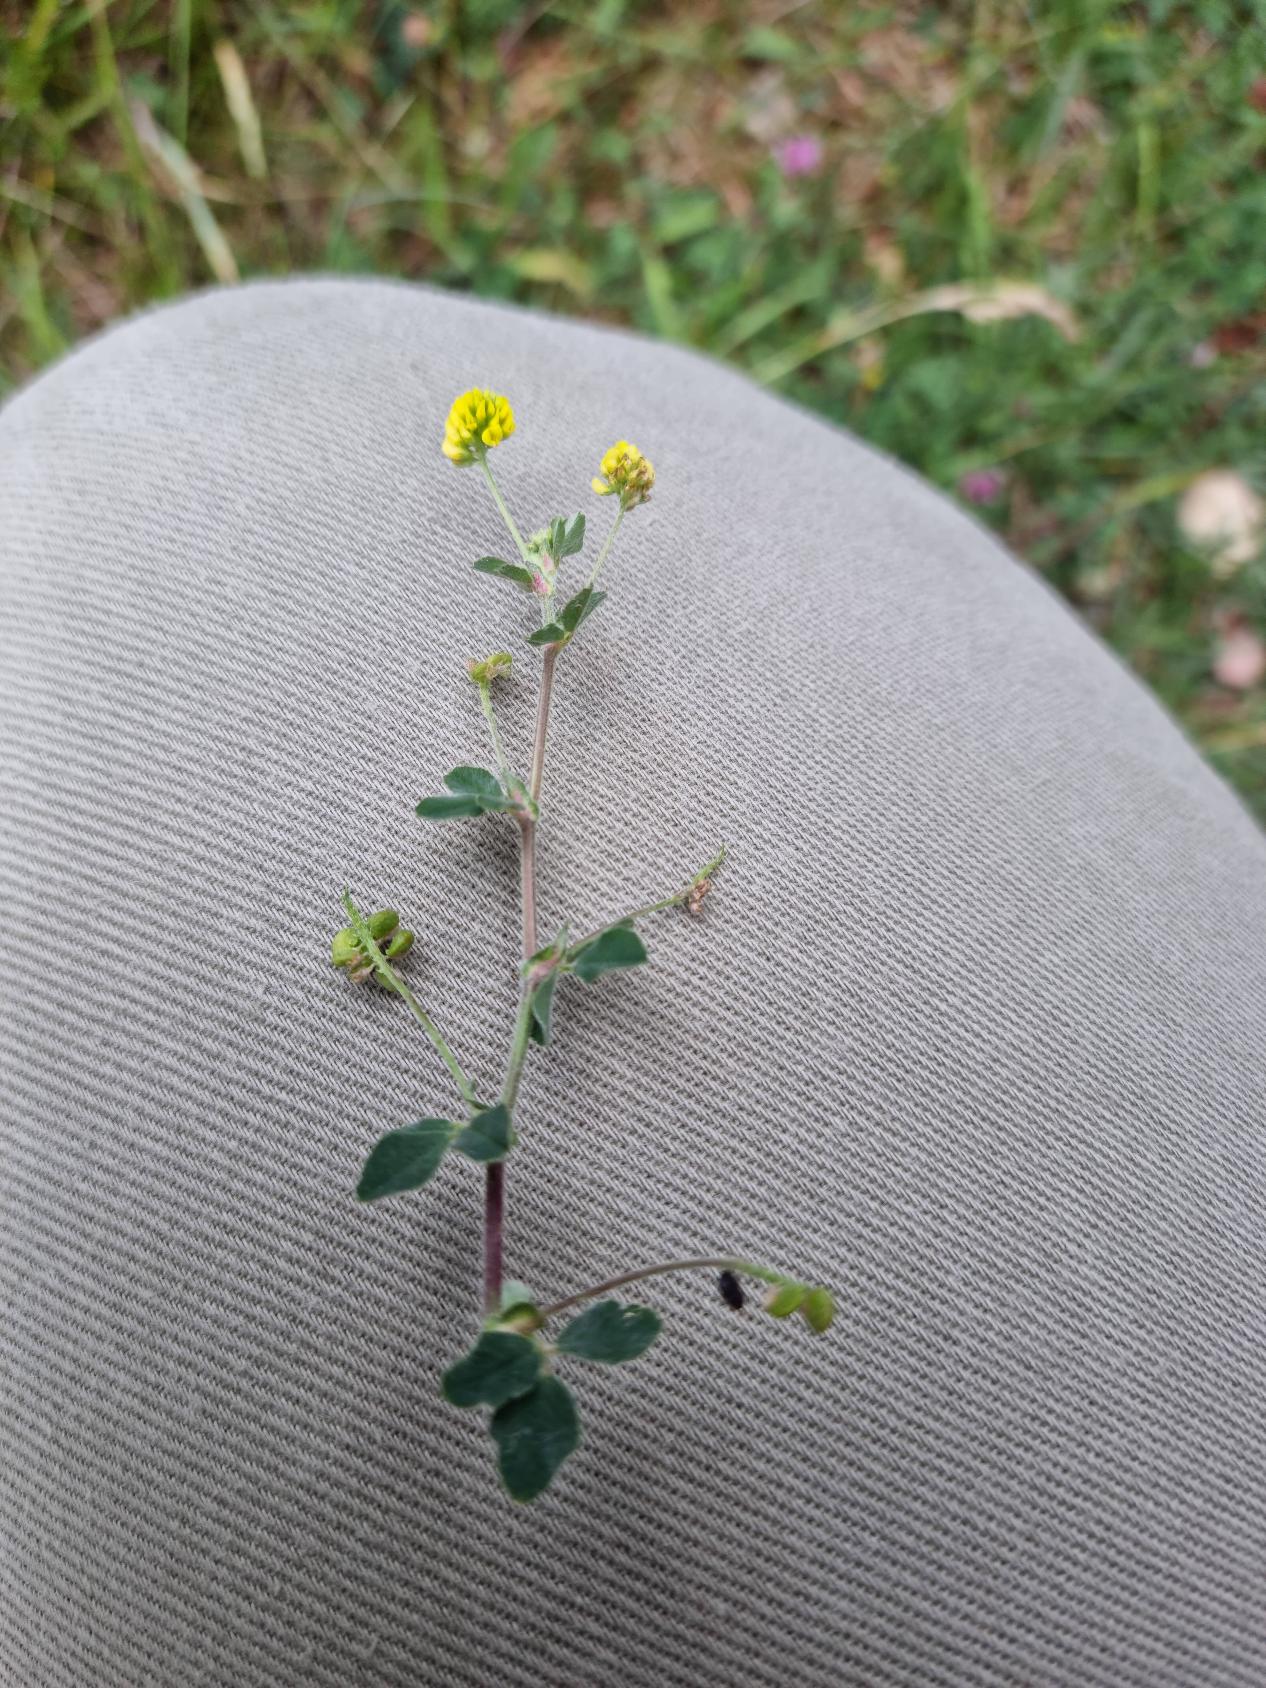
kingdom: Plantae
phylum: Tracheophyta
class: Magnoliopsida
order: Fabales
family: Fabaceae
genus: Medicago
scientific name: Medicago lupulina
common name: Humle-sneglebælg
